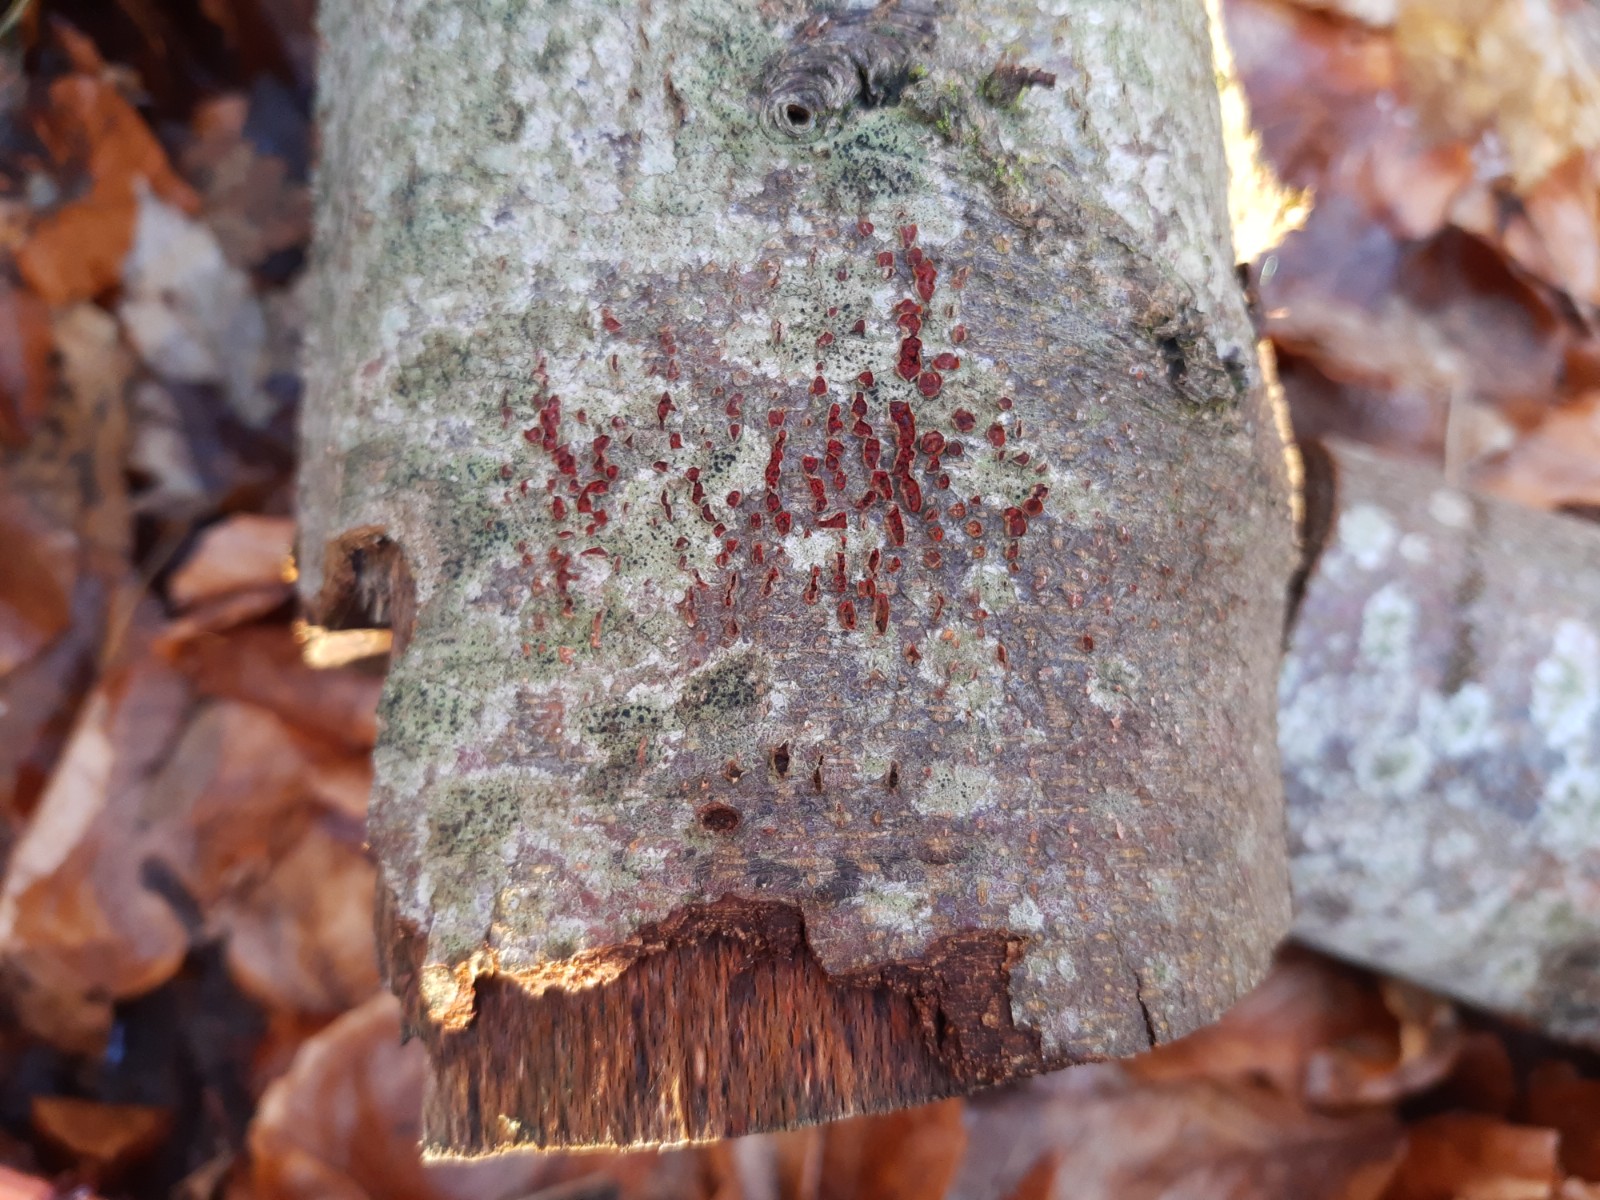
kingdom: Fungi
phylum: Ascomycota
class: Sordariomycetes
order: Hypocreales
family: Nectriaceae
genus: Neonectria
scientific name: Neonectria coccinea
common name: bøgebark-cinnobersvamp
